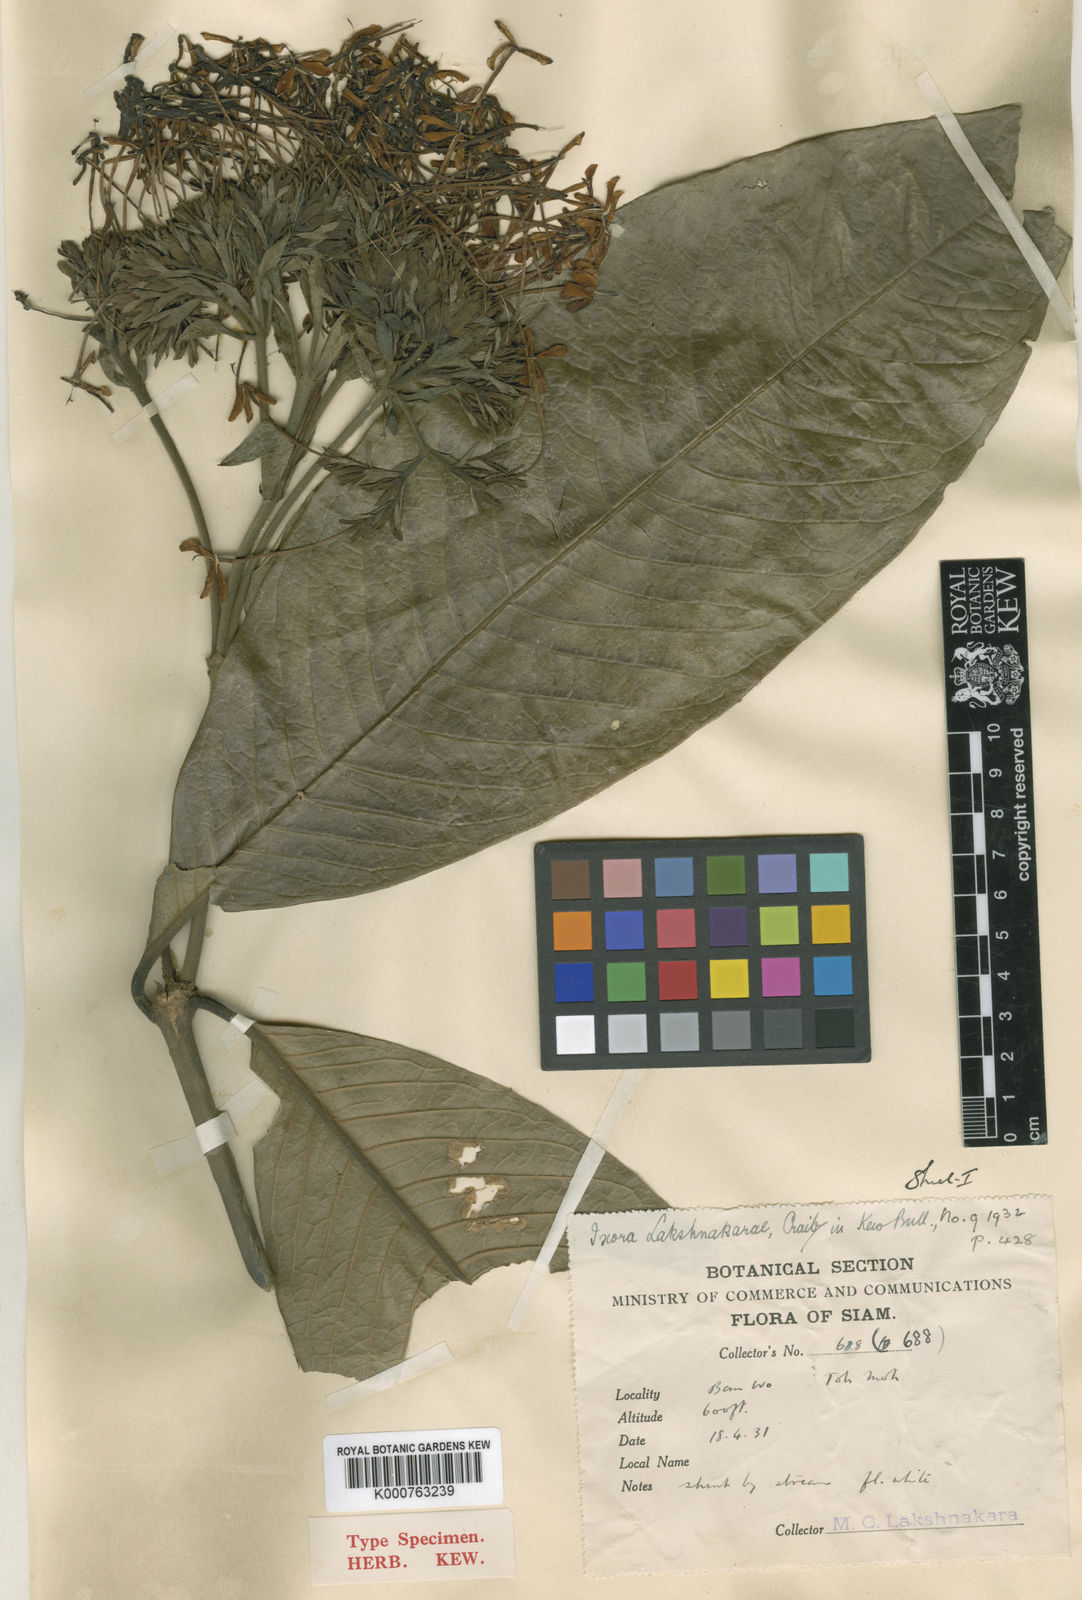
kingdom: Plantae
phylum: Tracheophyta
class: Magnoliopsida
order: Gentianales
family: Rubiaceae
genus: Ixora
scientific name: Ixora lakshnakarae
